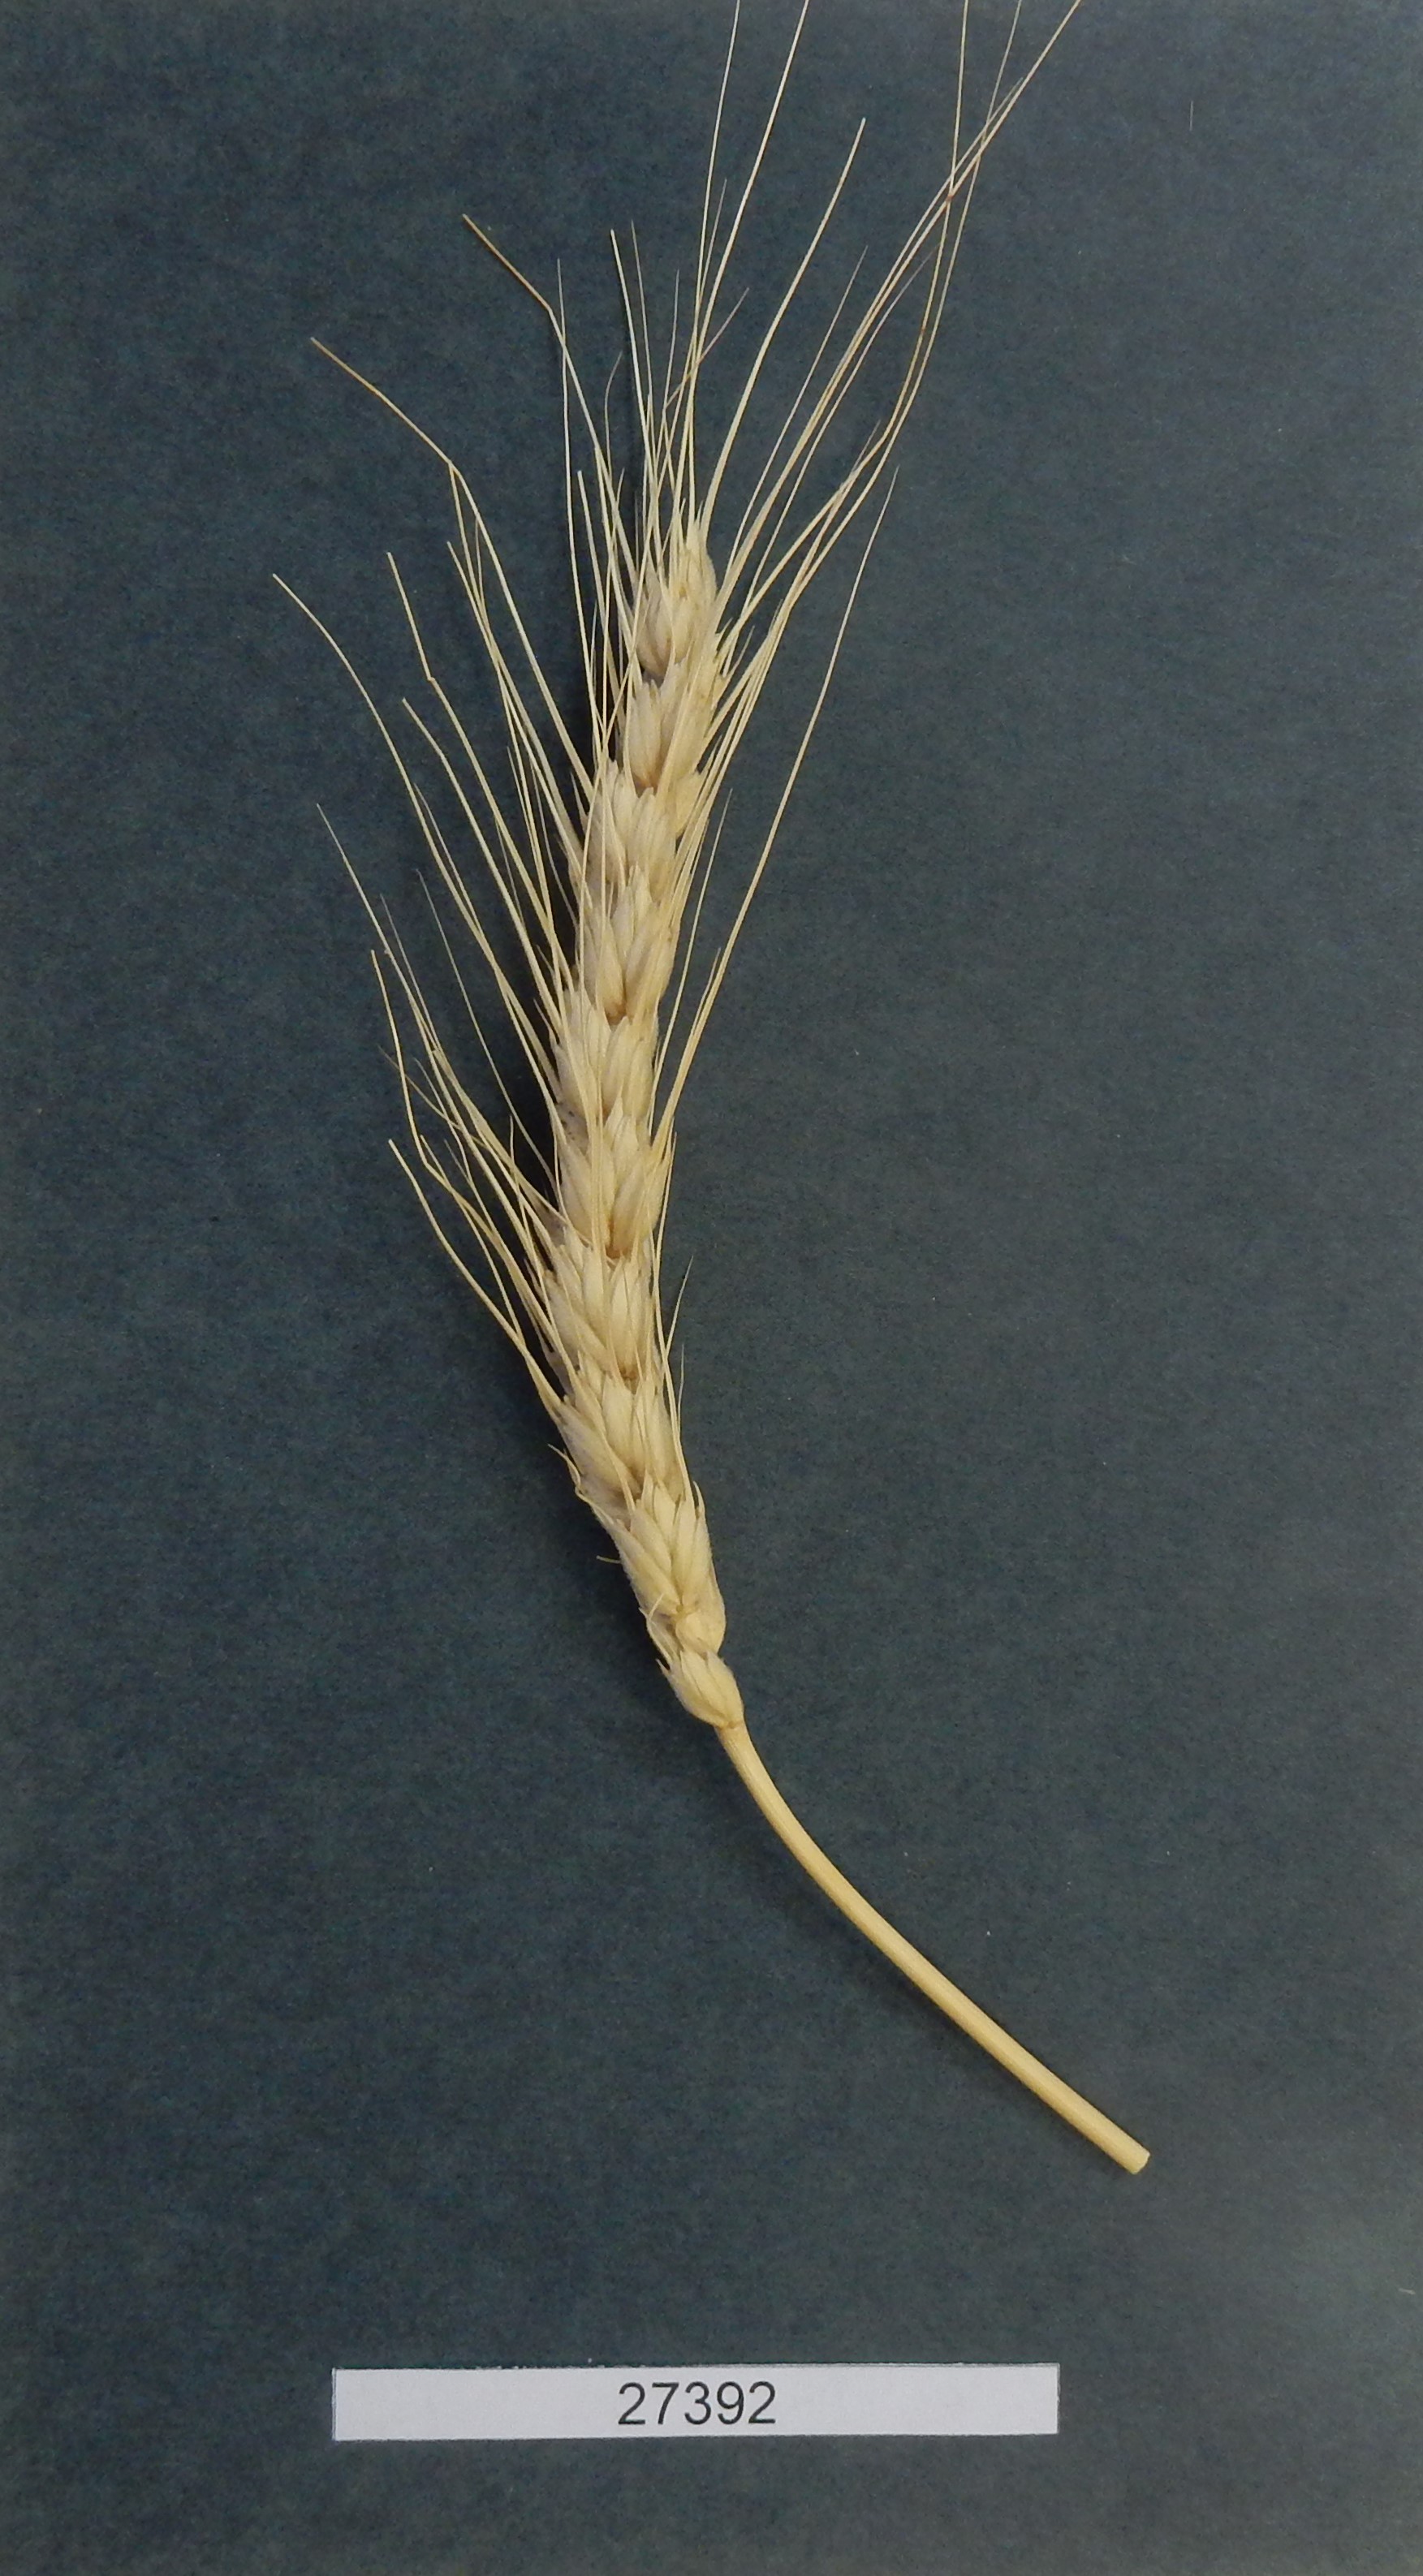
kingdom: Plantae
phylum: Tracheophyta
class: Liliopsida
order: Poales
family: Poaceae
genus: Triticum
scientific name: Triticum aestivum
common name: Common wheat
